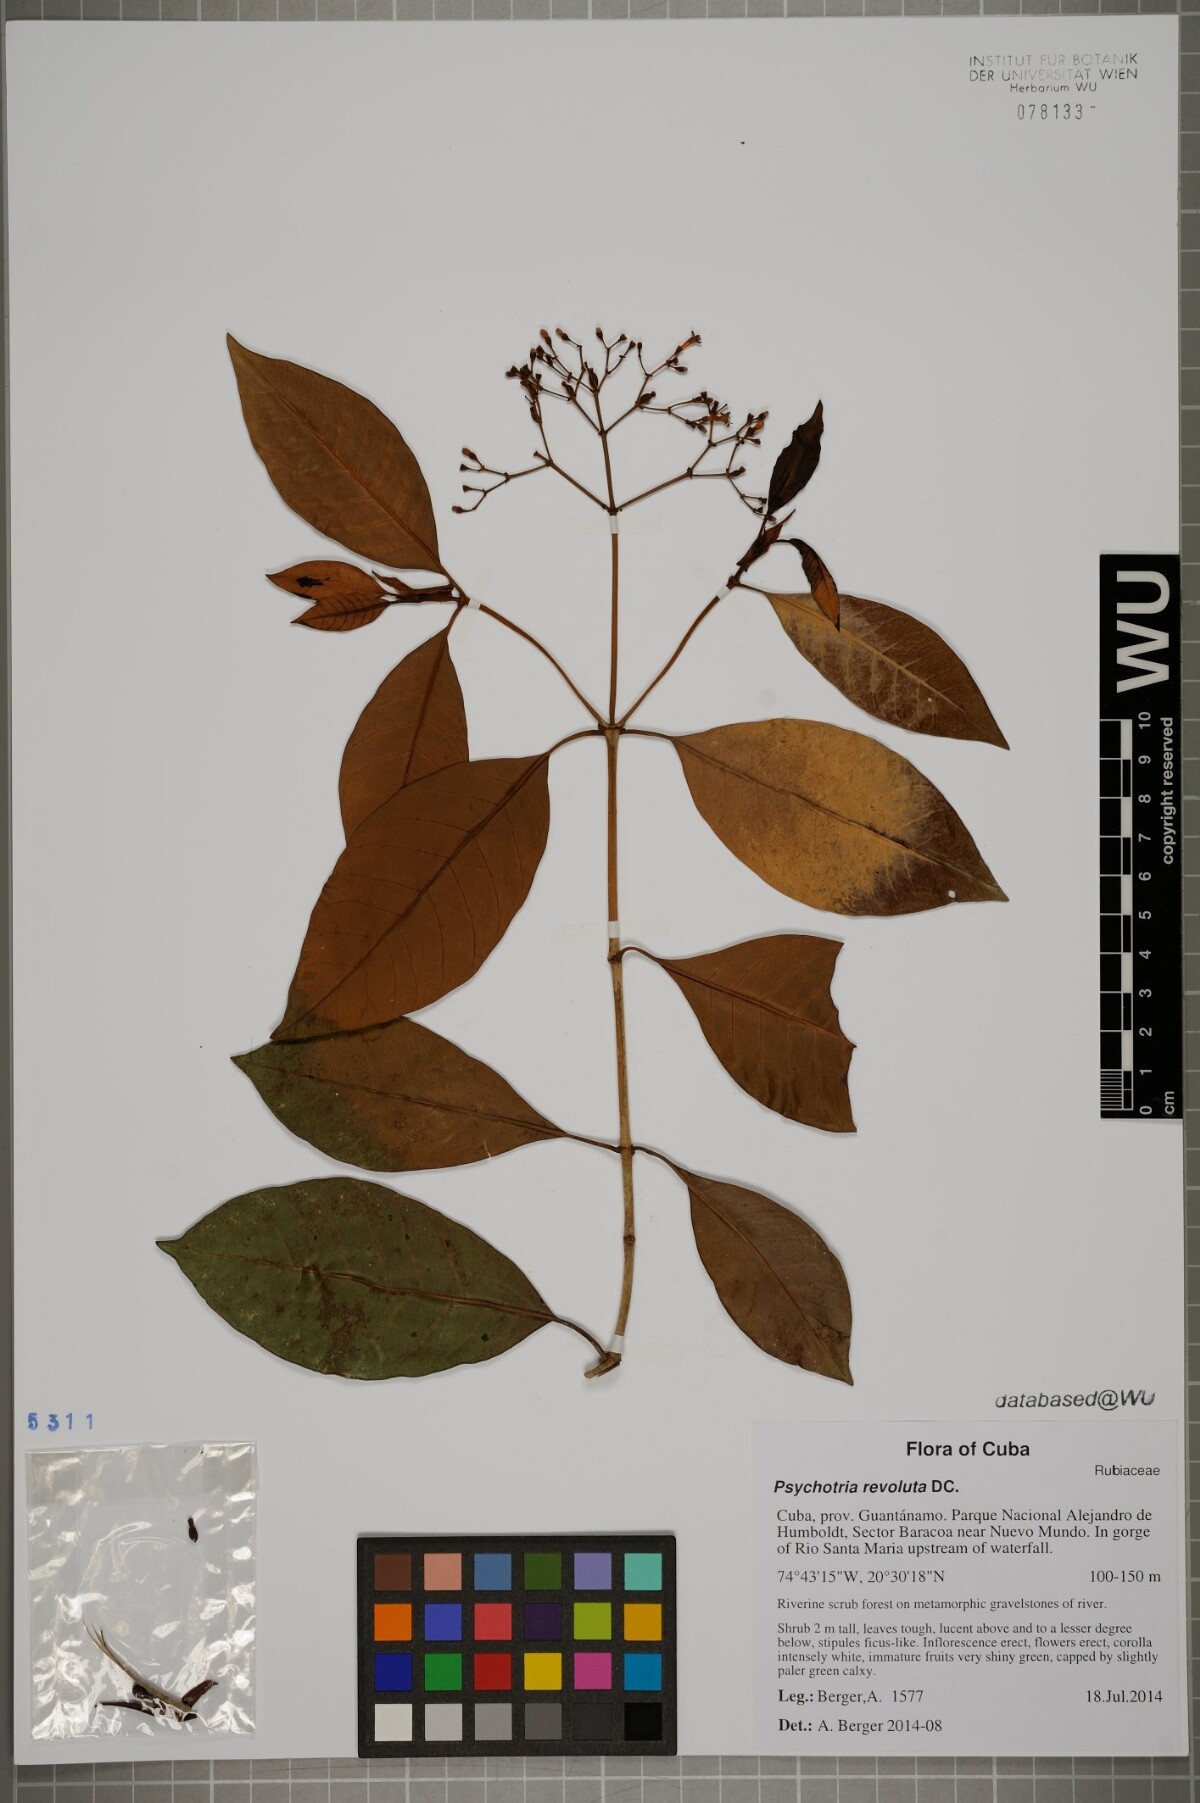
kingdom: Plantae
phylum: Tracheophyta
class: Magnoliopsida
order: Gentianales
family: Rubiaceae
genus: Psychotria
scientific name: Psychotria revoluta
